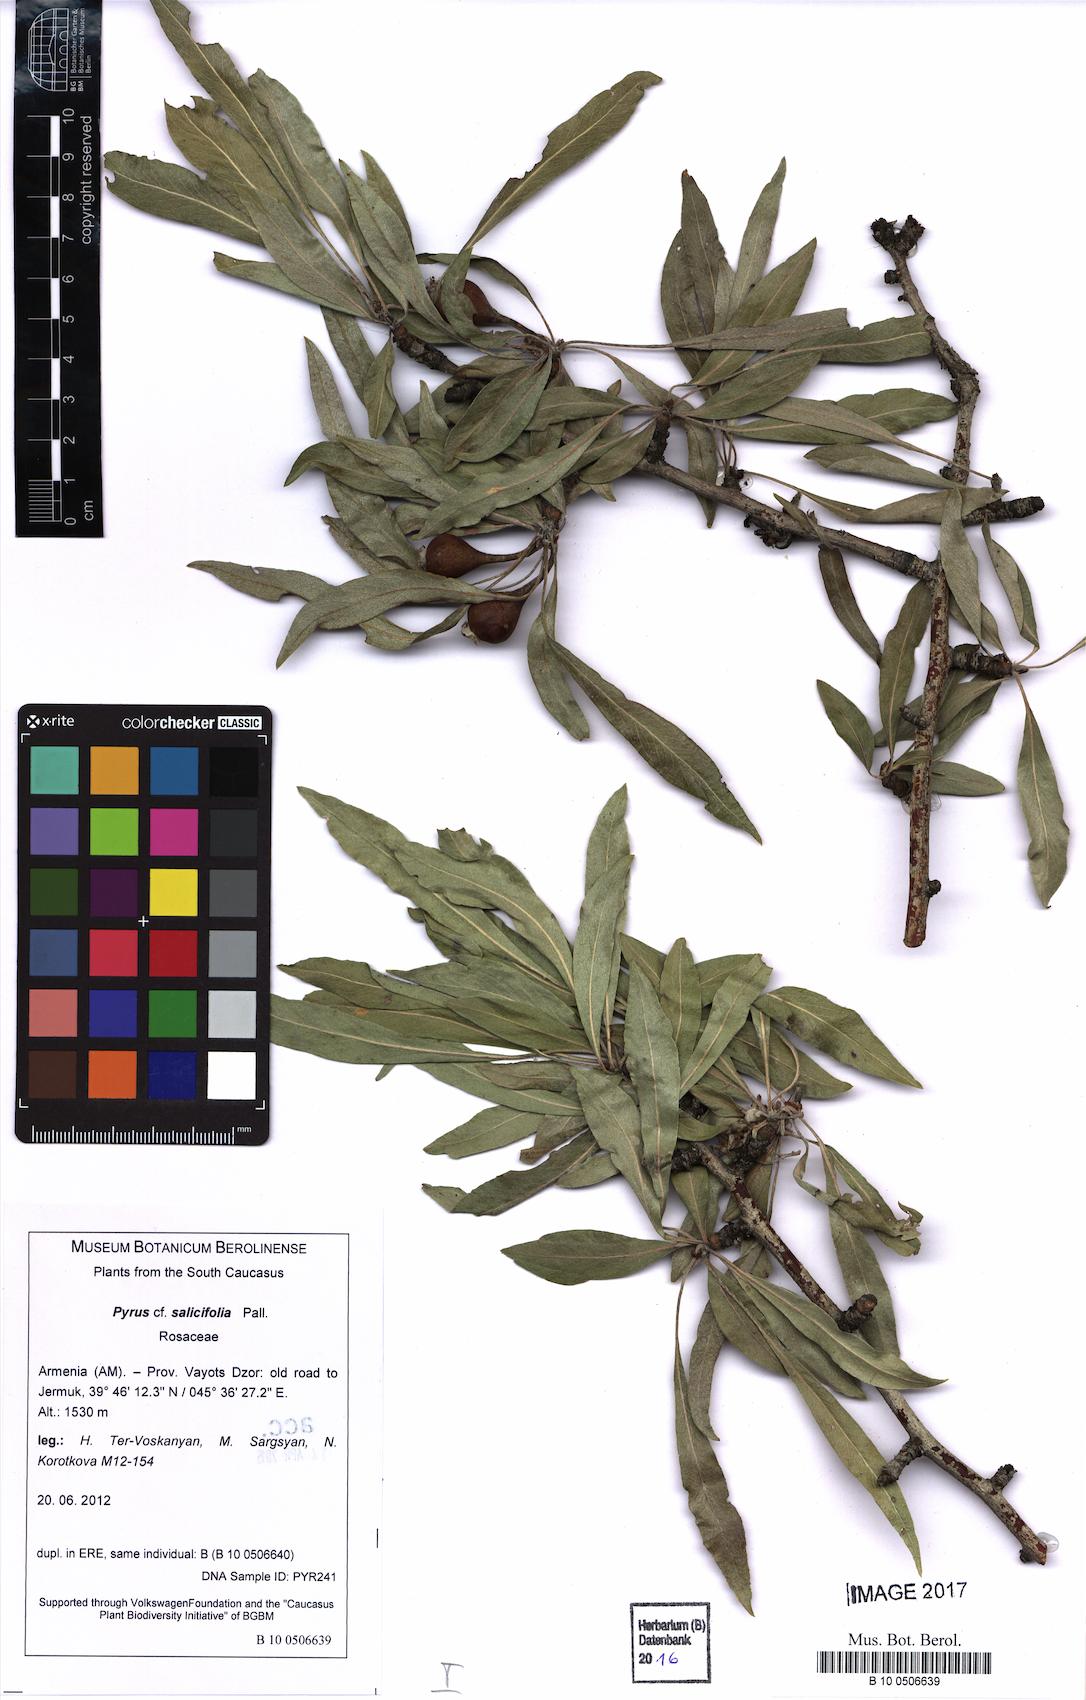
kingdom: Plantae
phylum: Tracheophyta
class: Magnoliopsida
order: Rosales
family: Rosaceae
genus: Pyrus
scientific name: Pyrus salicifolia
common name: Willow-leaved pear
